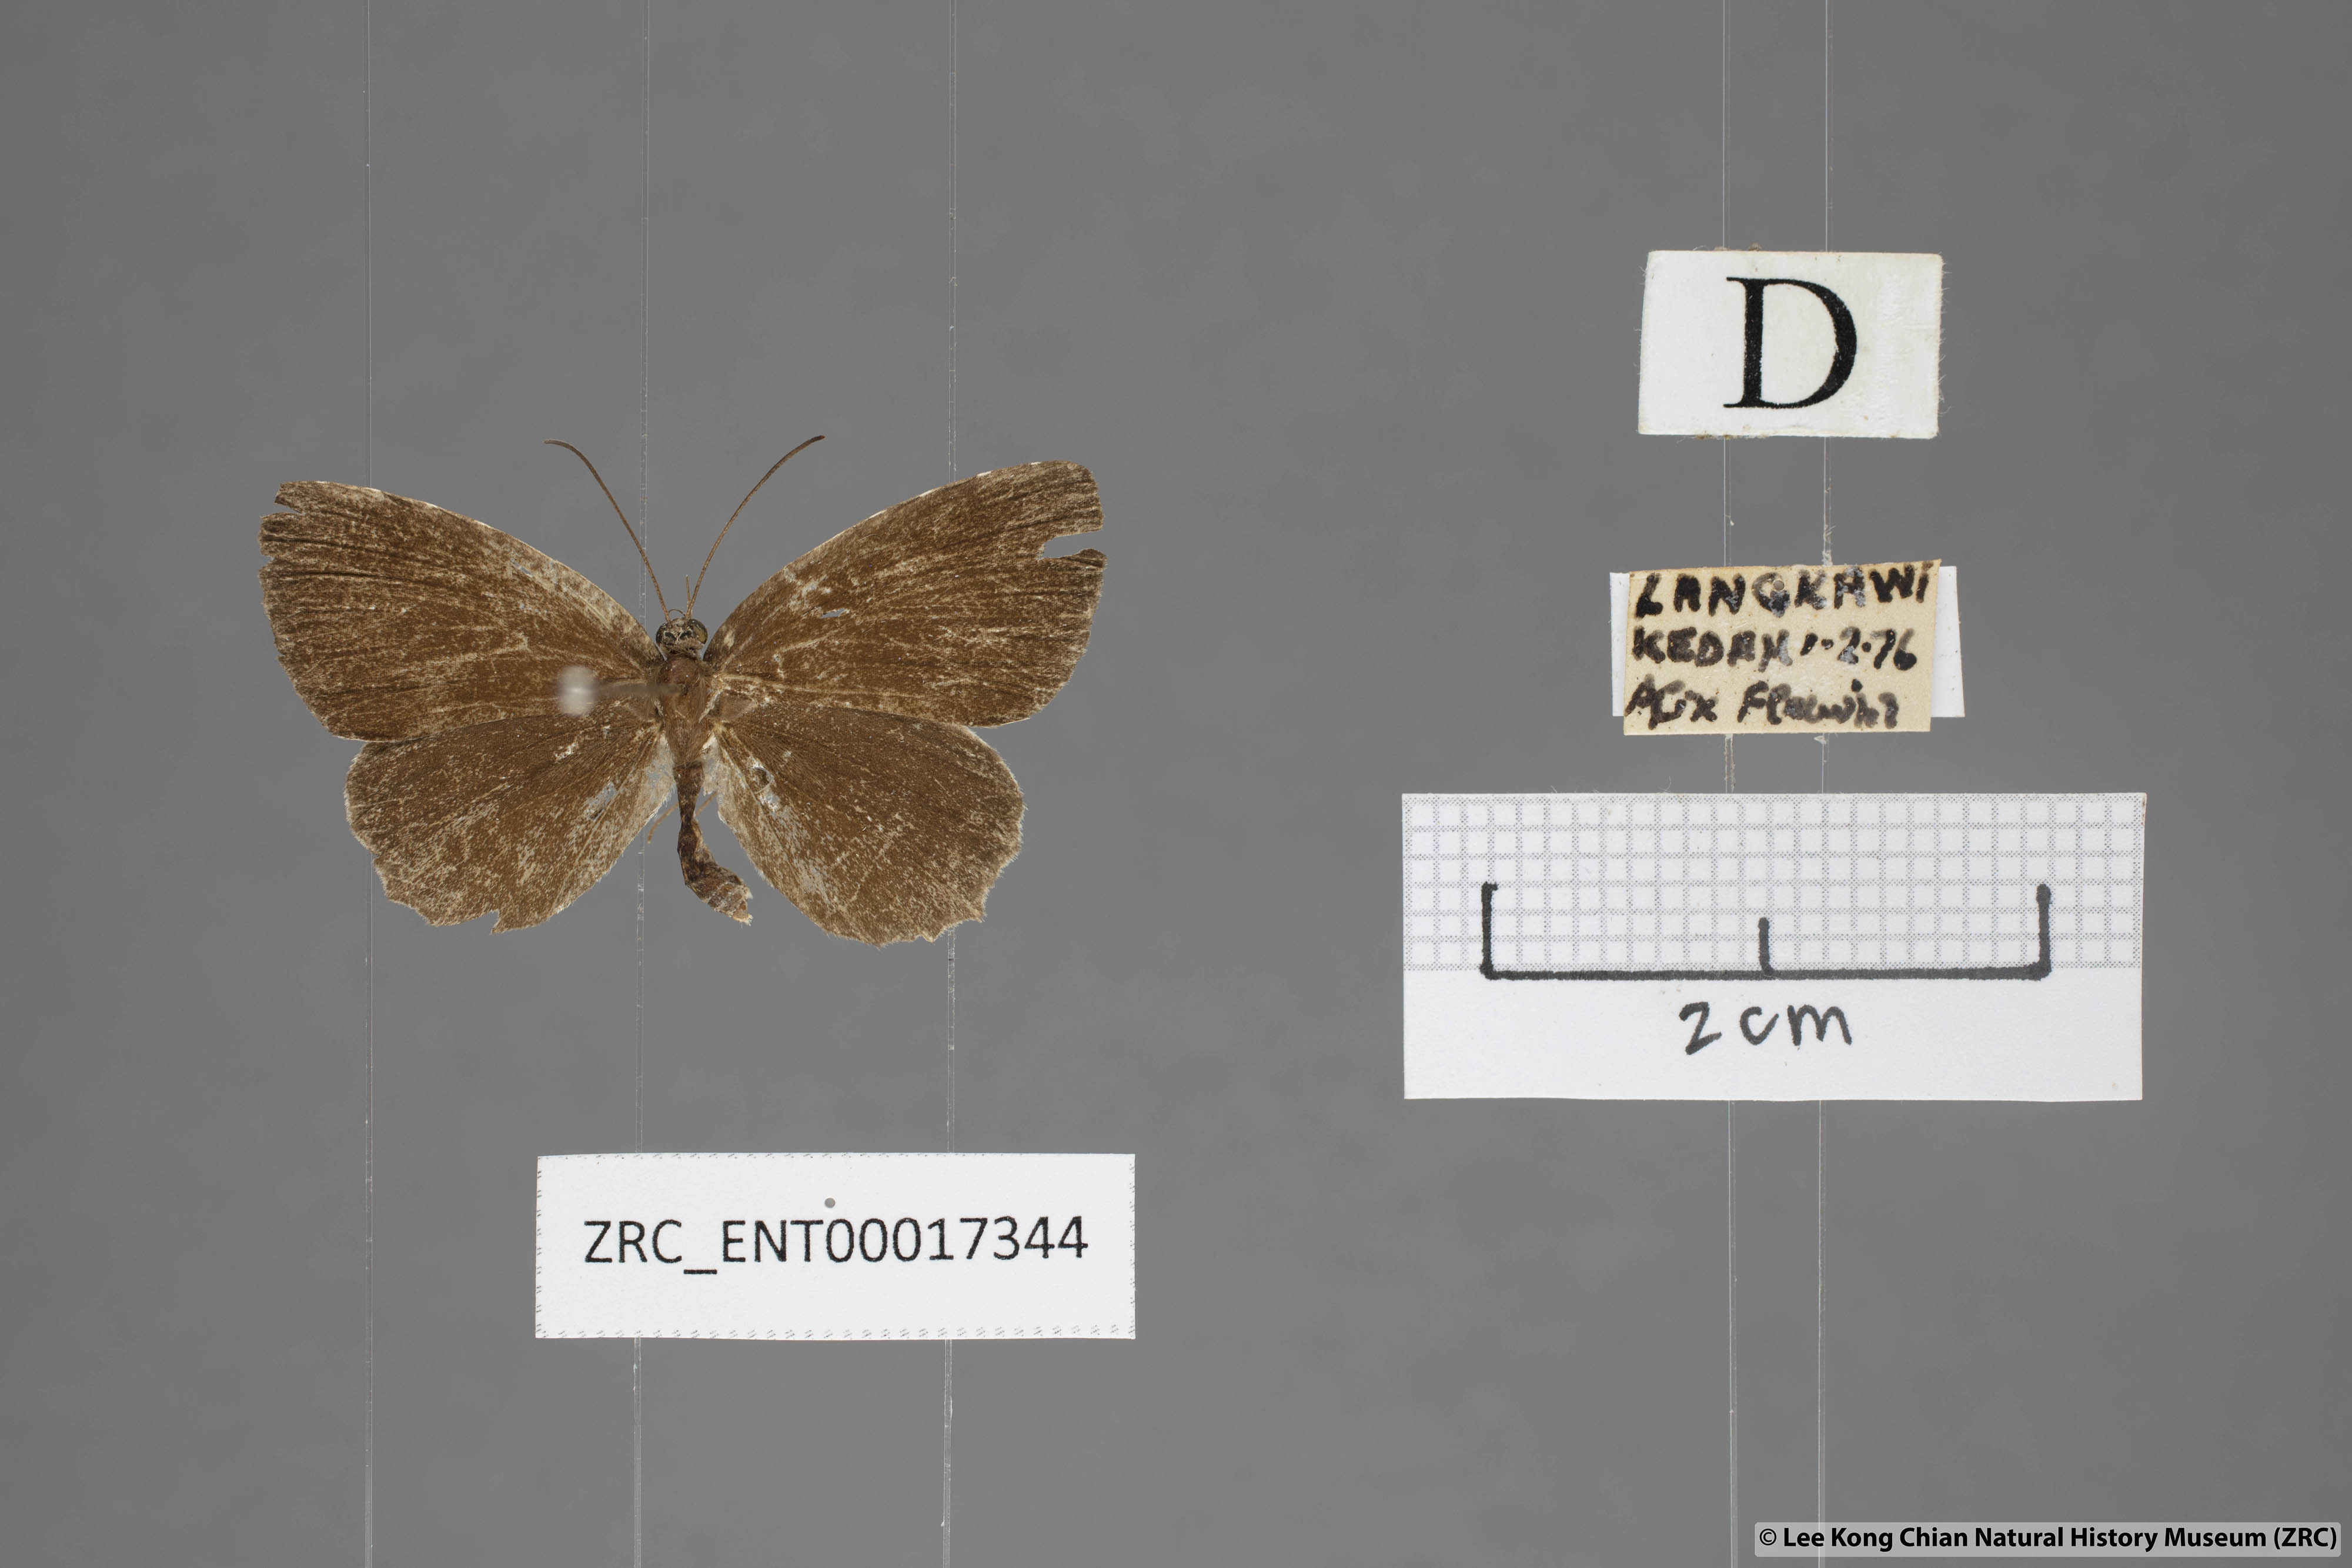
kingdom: Animalia
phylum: Arthropoda
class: Insecta
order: Lepidoptera
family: Lycaenidae
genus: Allotinus
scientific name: Allotinus sarastes
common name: Peninsular darkie
